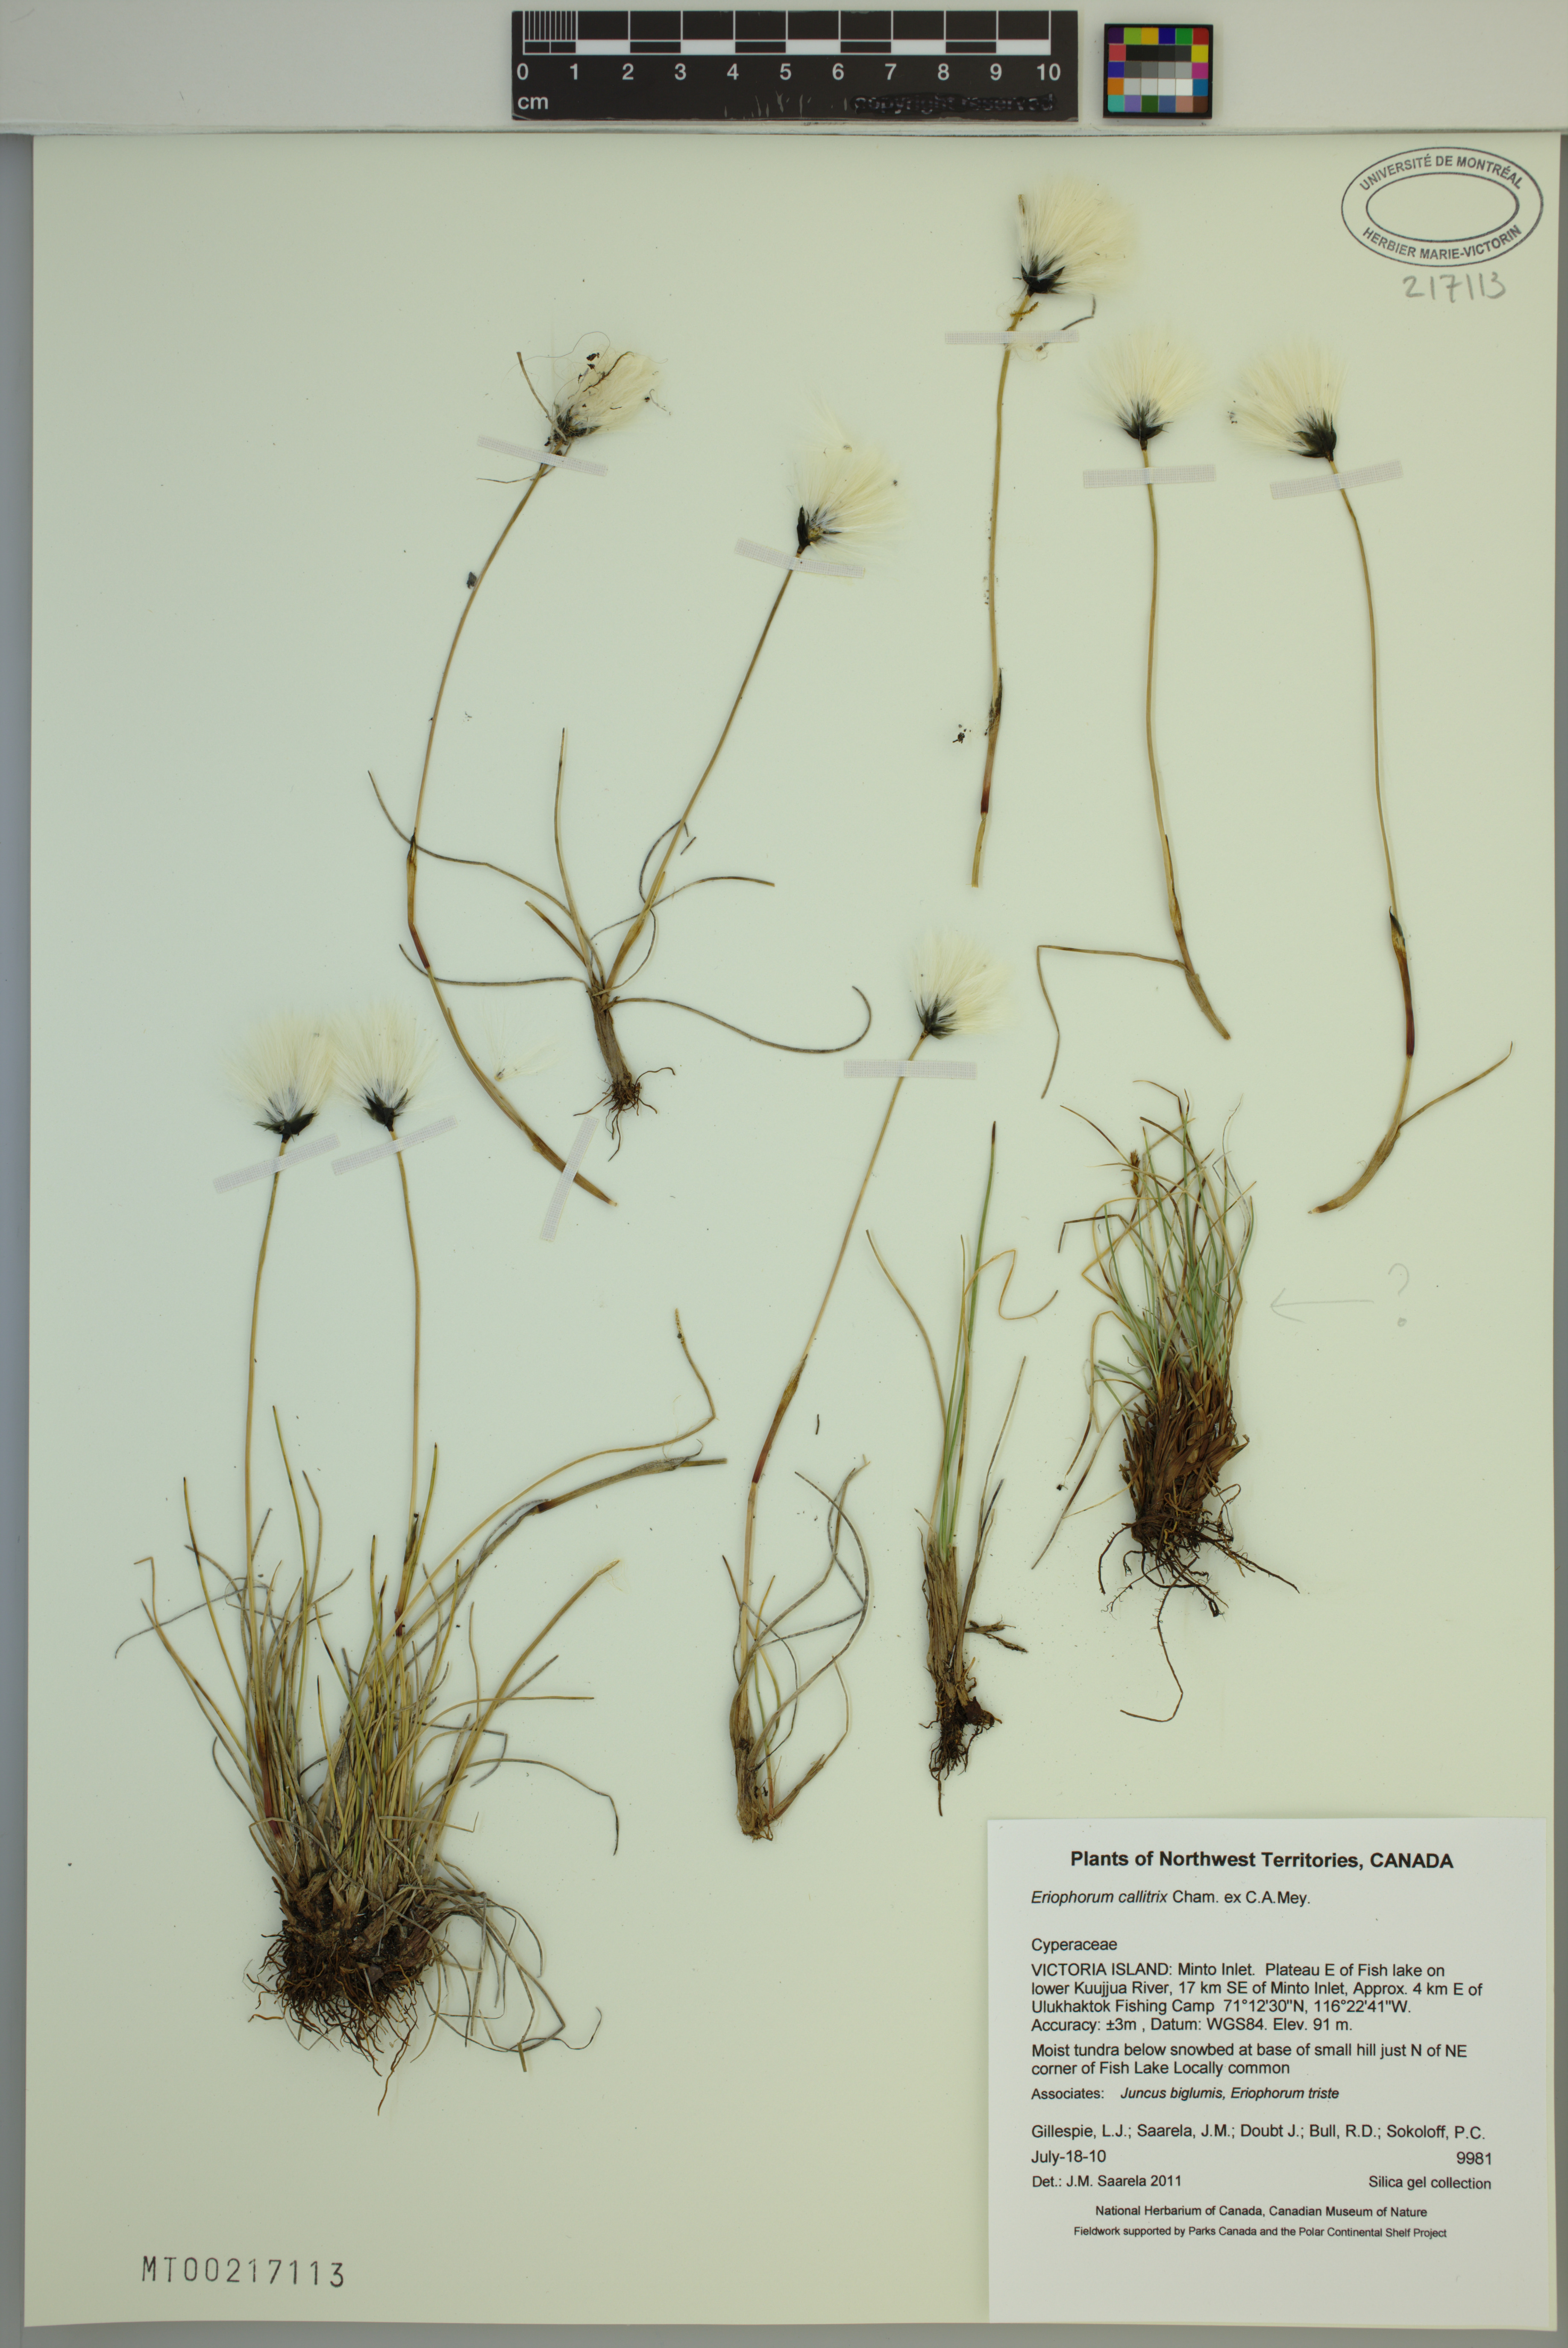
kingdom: Plantae
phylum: Tracheophyta
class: Liliopsida
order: Poales
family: Cyperaceae
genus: Eriophorum
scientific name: Eriophorum callitrix
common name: Arctic cottongrass
